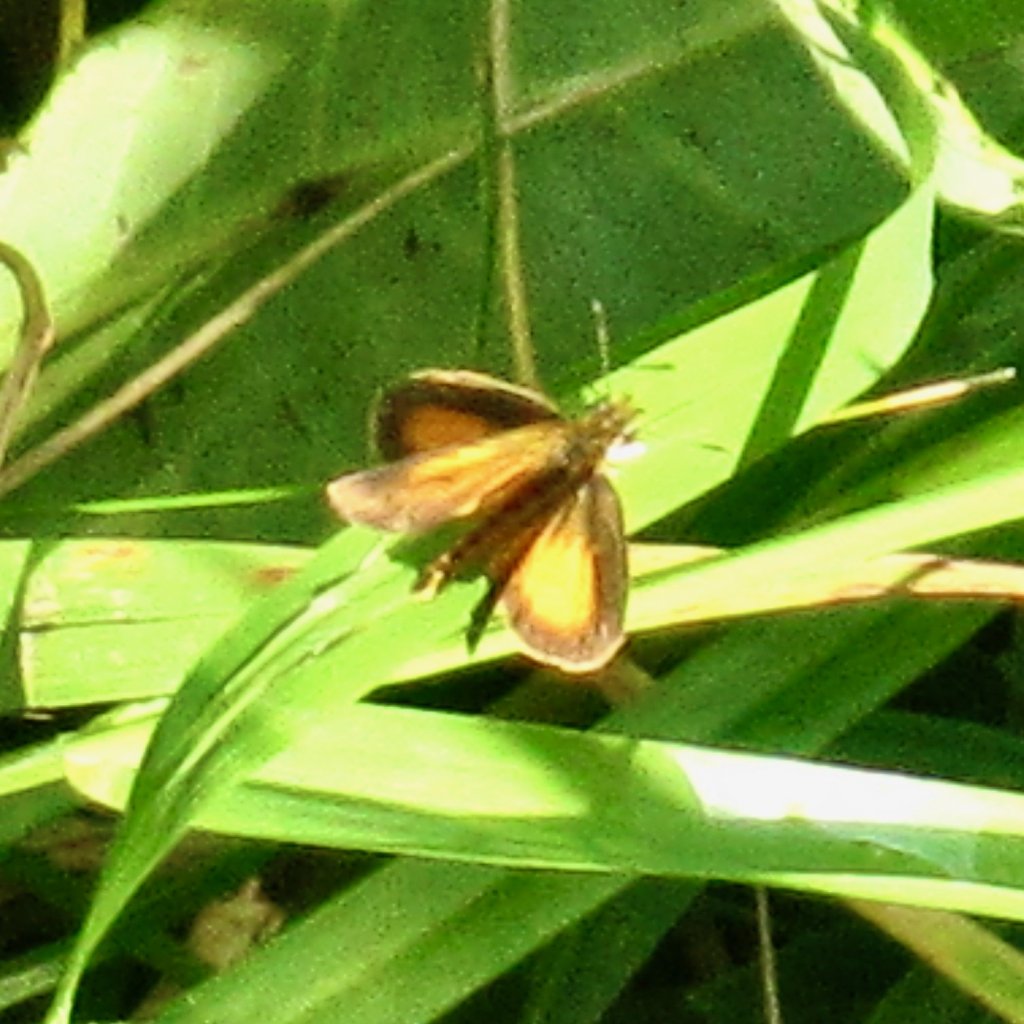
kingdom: Animalia
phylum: Arthropoda
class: Insecta
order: Lepidoptera
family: Hesperiidae
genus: Ancyloxypha
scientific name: Ancyloxypha numitor
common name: Least Skipper
